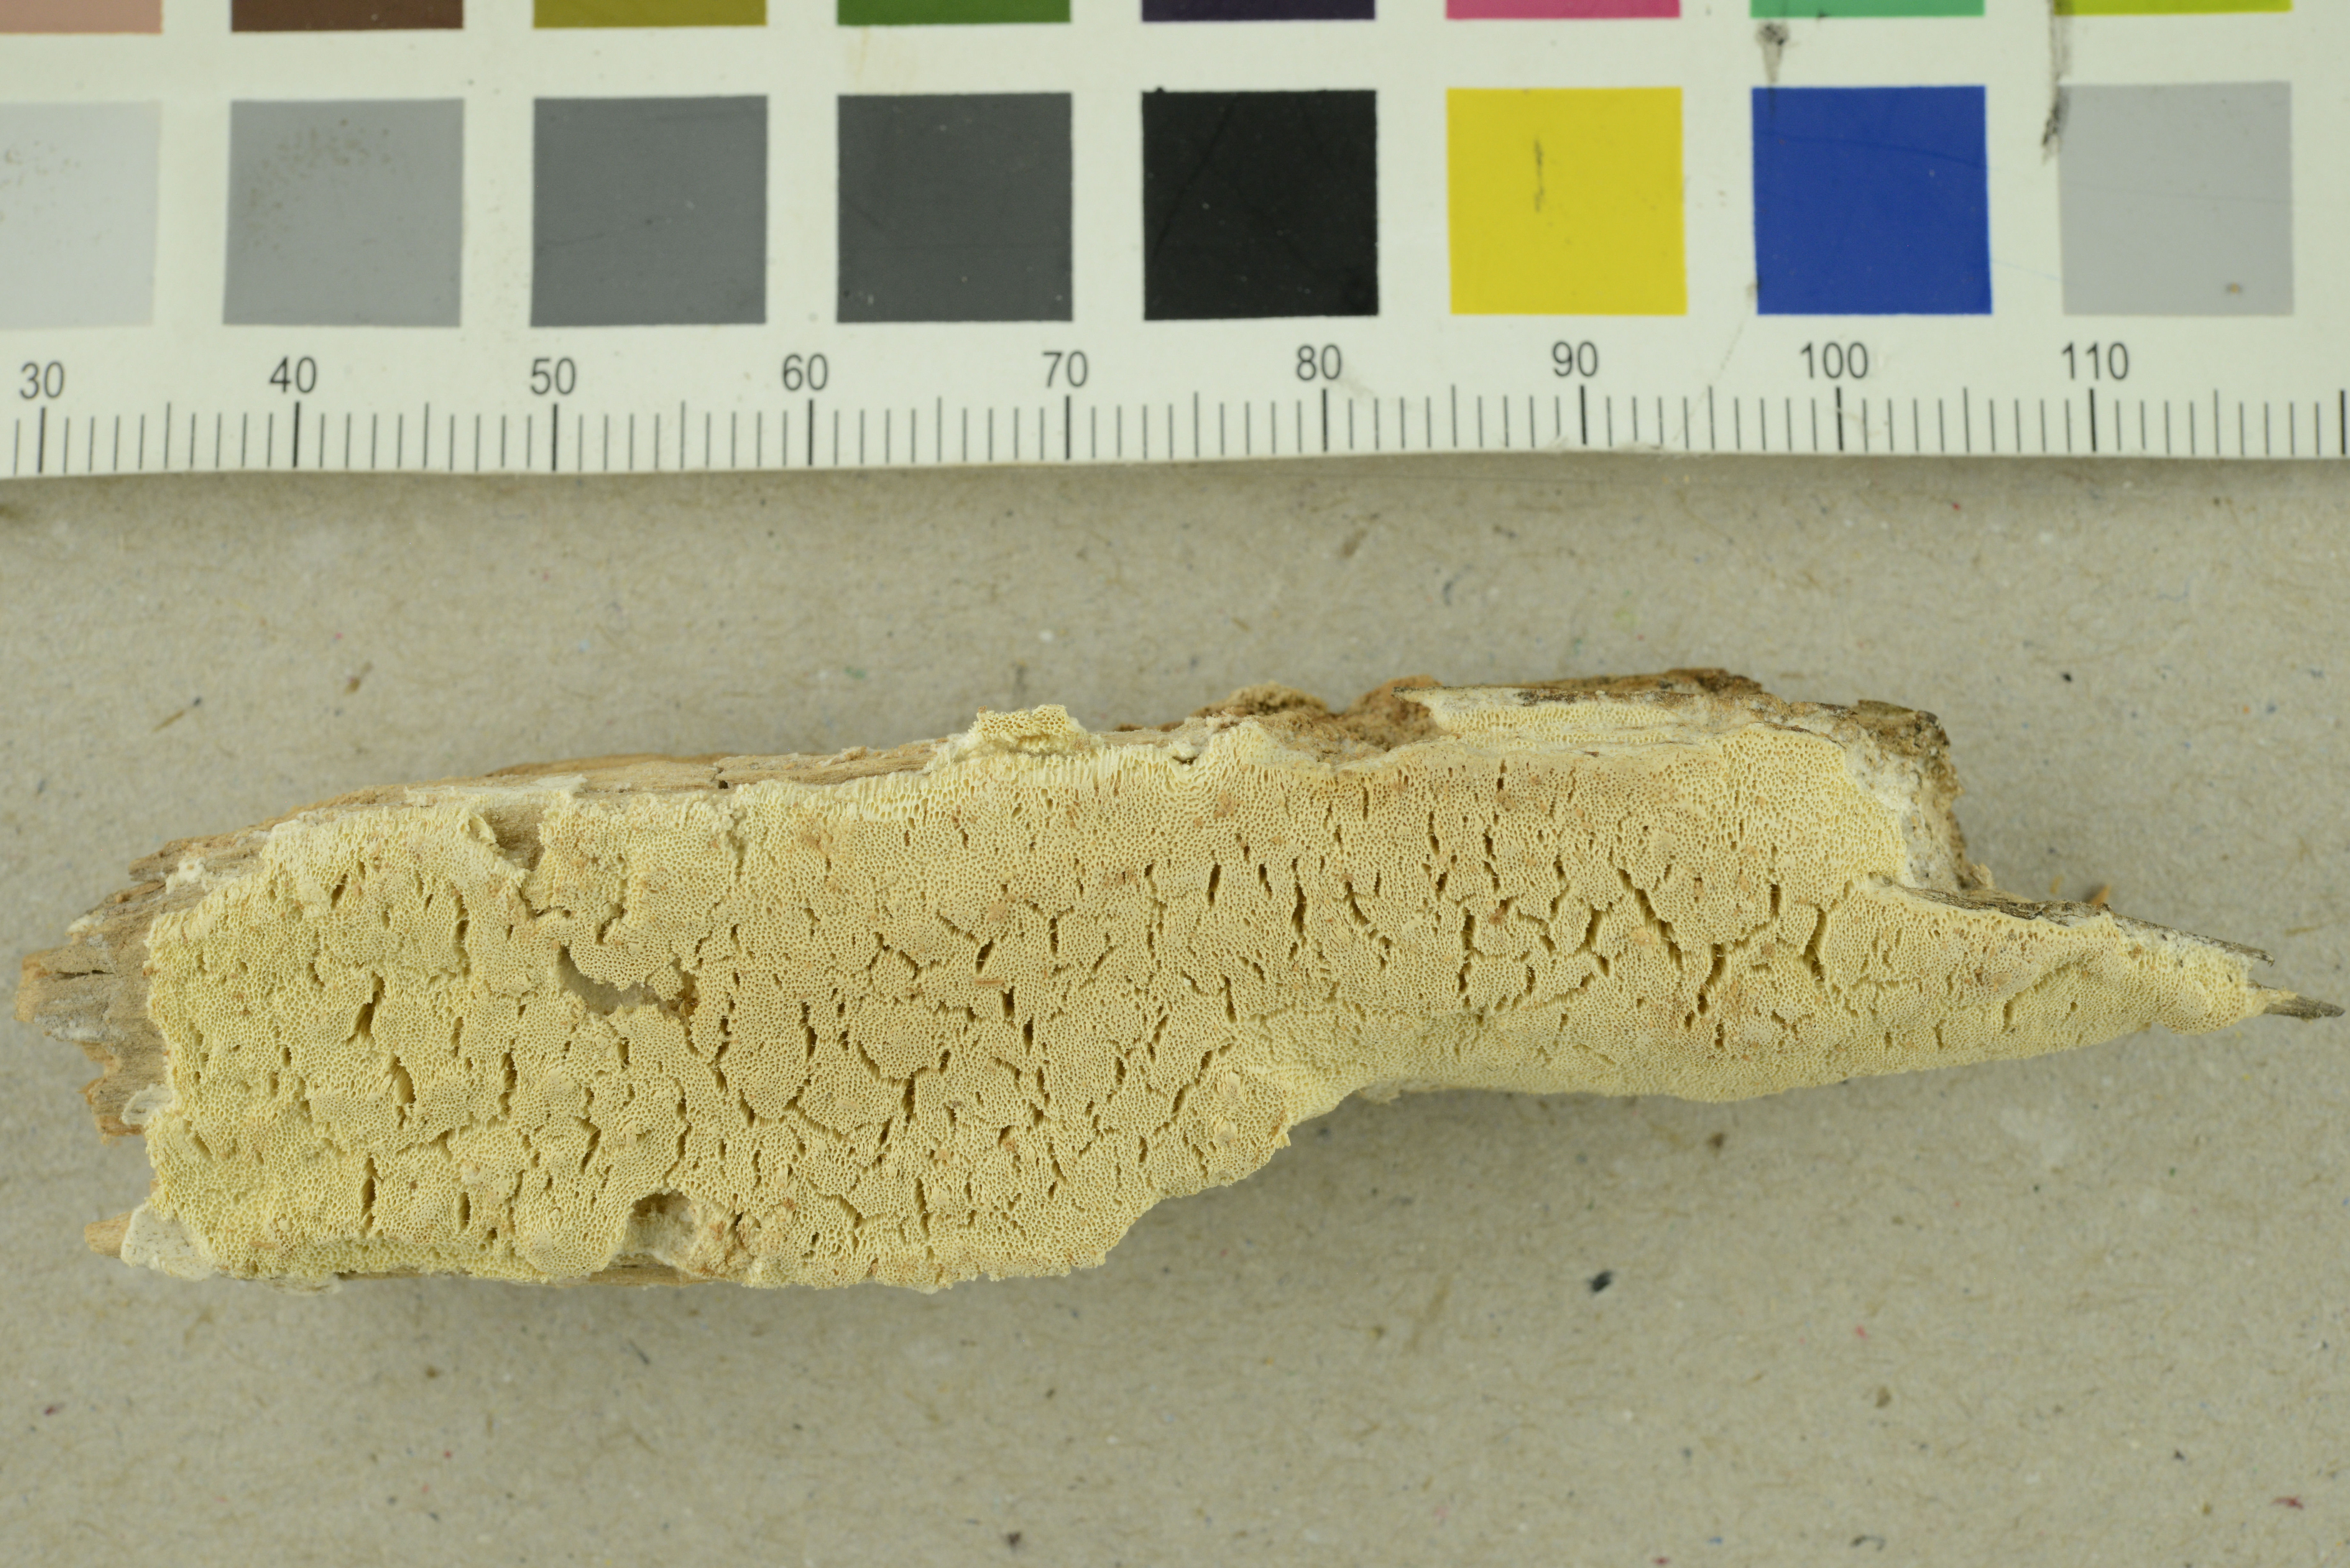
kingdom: Fungi
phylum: Basidiomycota
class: Agaricomycetes
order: Polyporales
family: Fomitopsidaceae
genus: Daedalea
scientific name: Daedalea xantha
